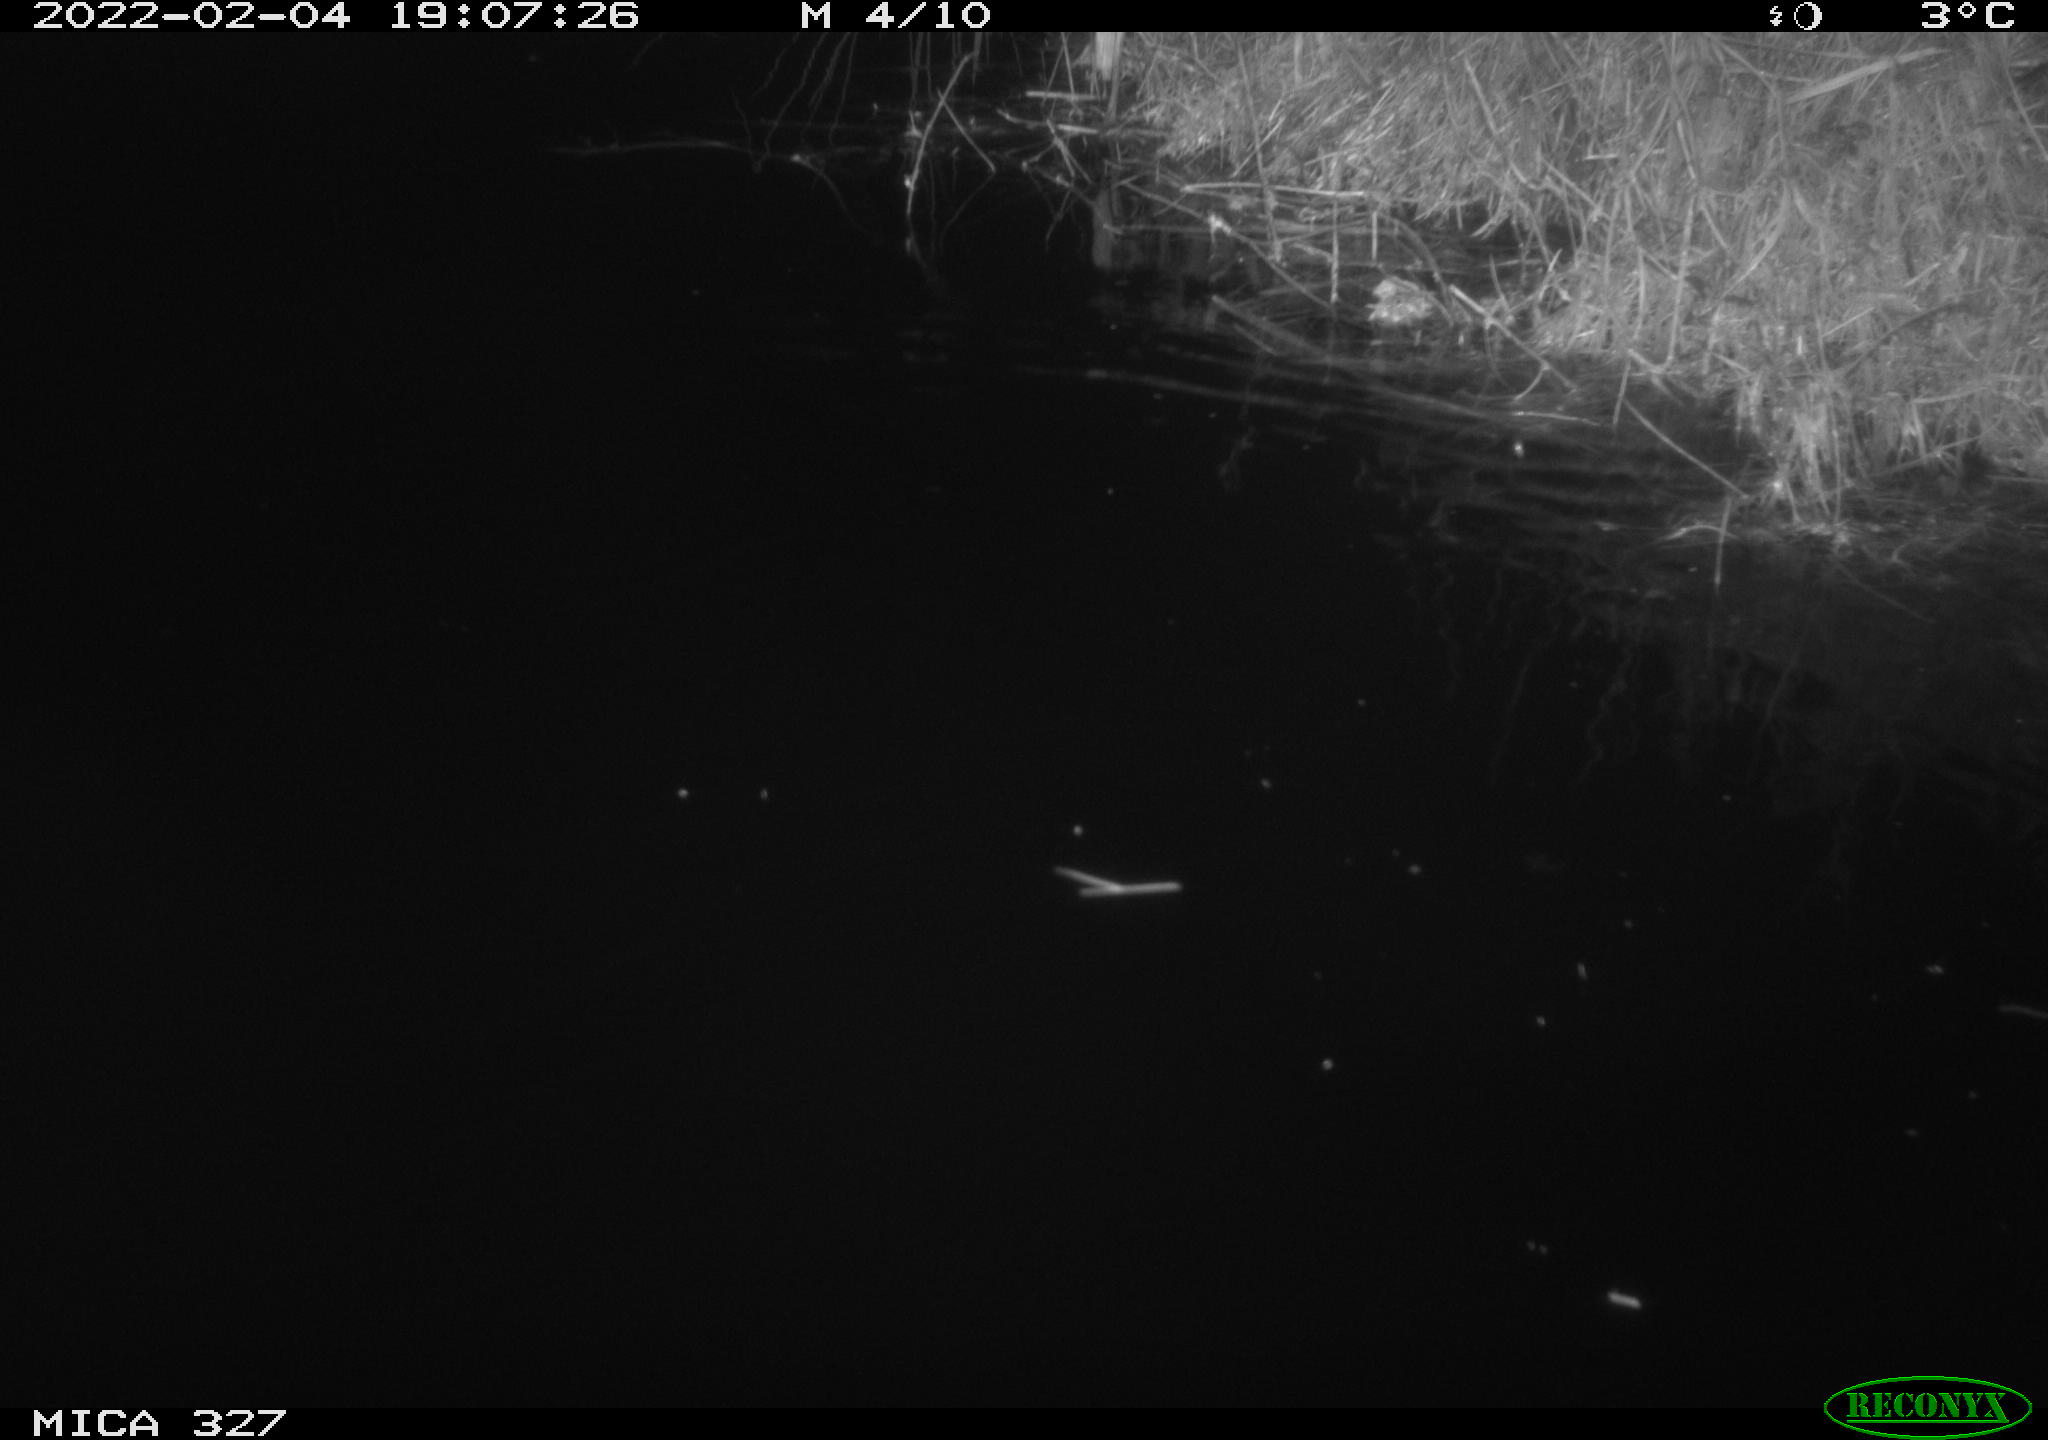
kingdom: Animalia
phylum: Chordata
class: Mammalia
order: Rodentia
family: Cricetidae
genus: Ondatra
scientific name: Ondatra zibethicus
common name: Muskrat
